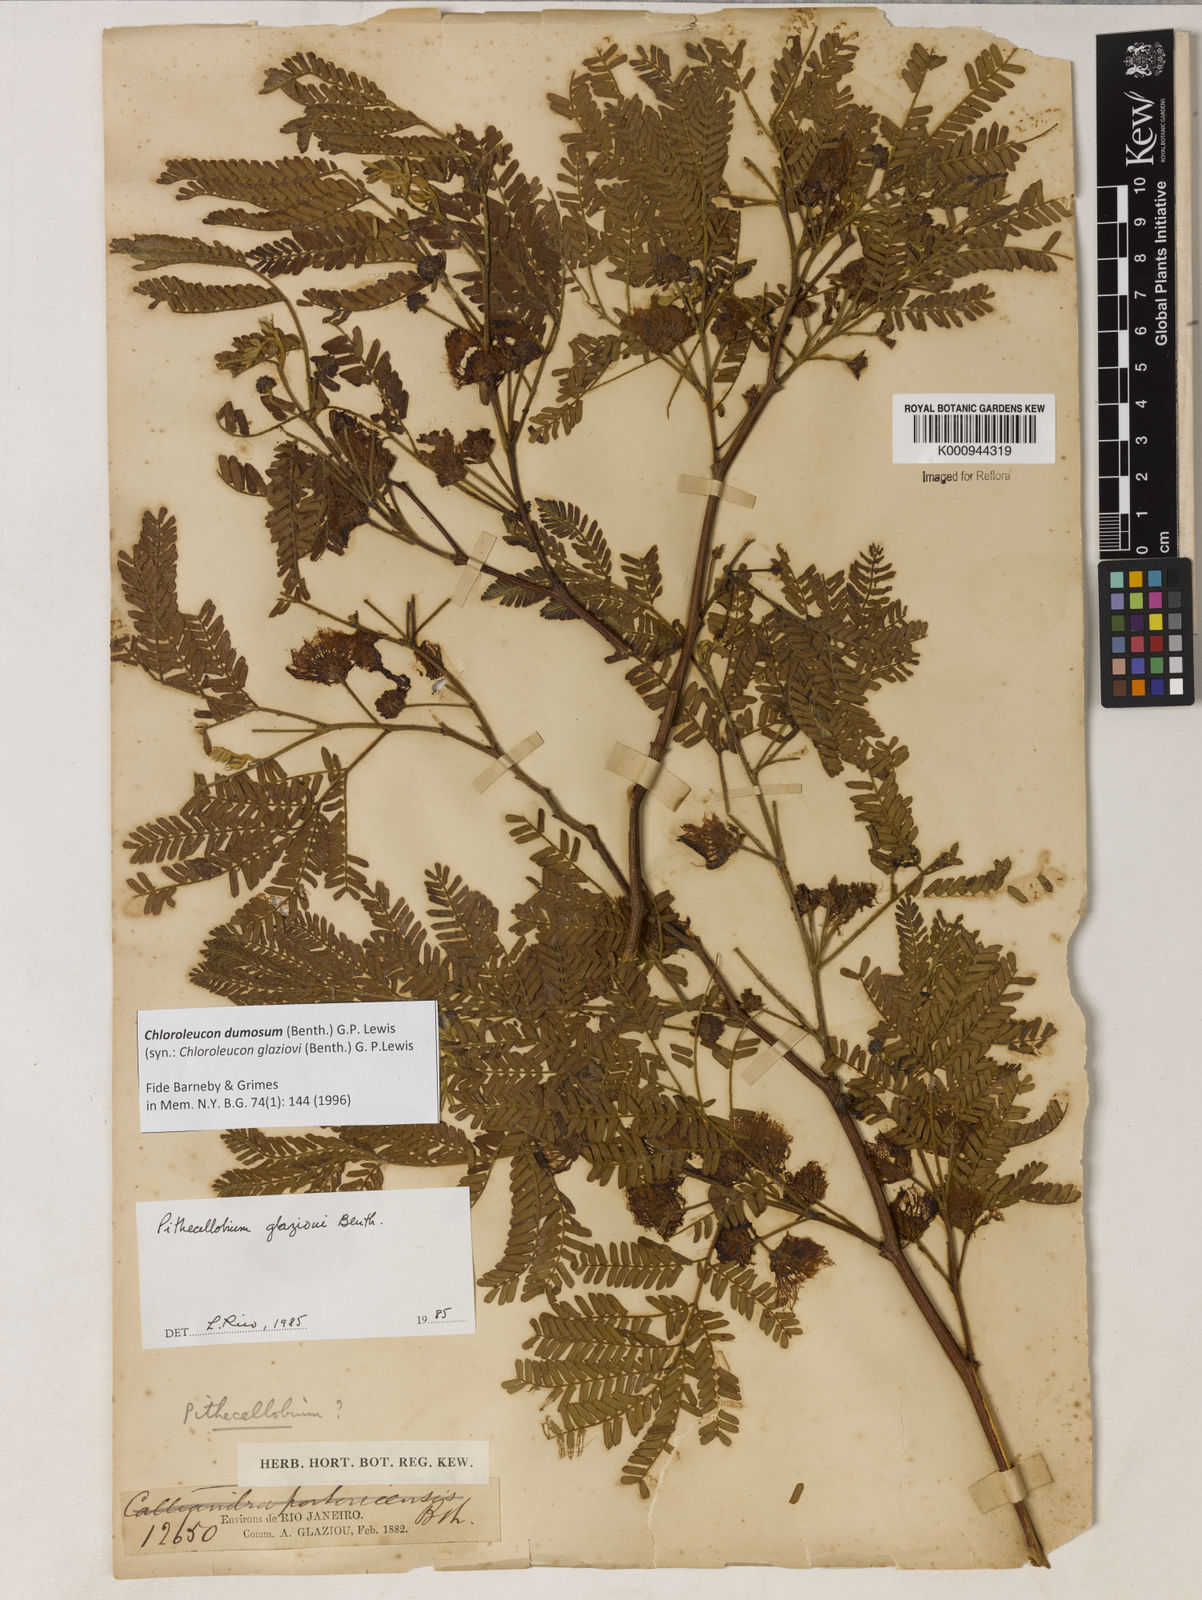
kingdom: Plantae
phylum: Tracheophyta
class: Magnoliopsida
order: Fabales
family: Fabaceae
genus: Inga
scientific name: Inga stenoptera
